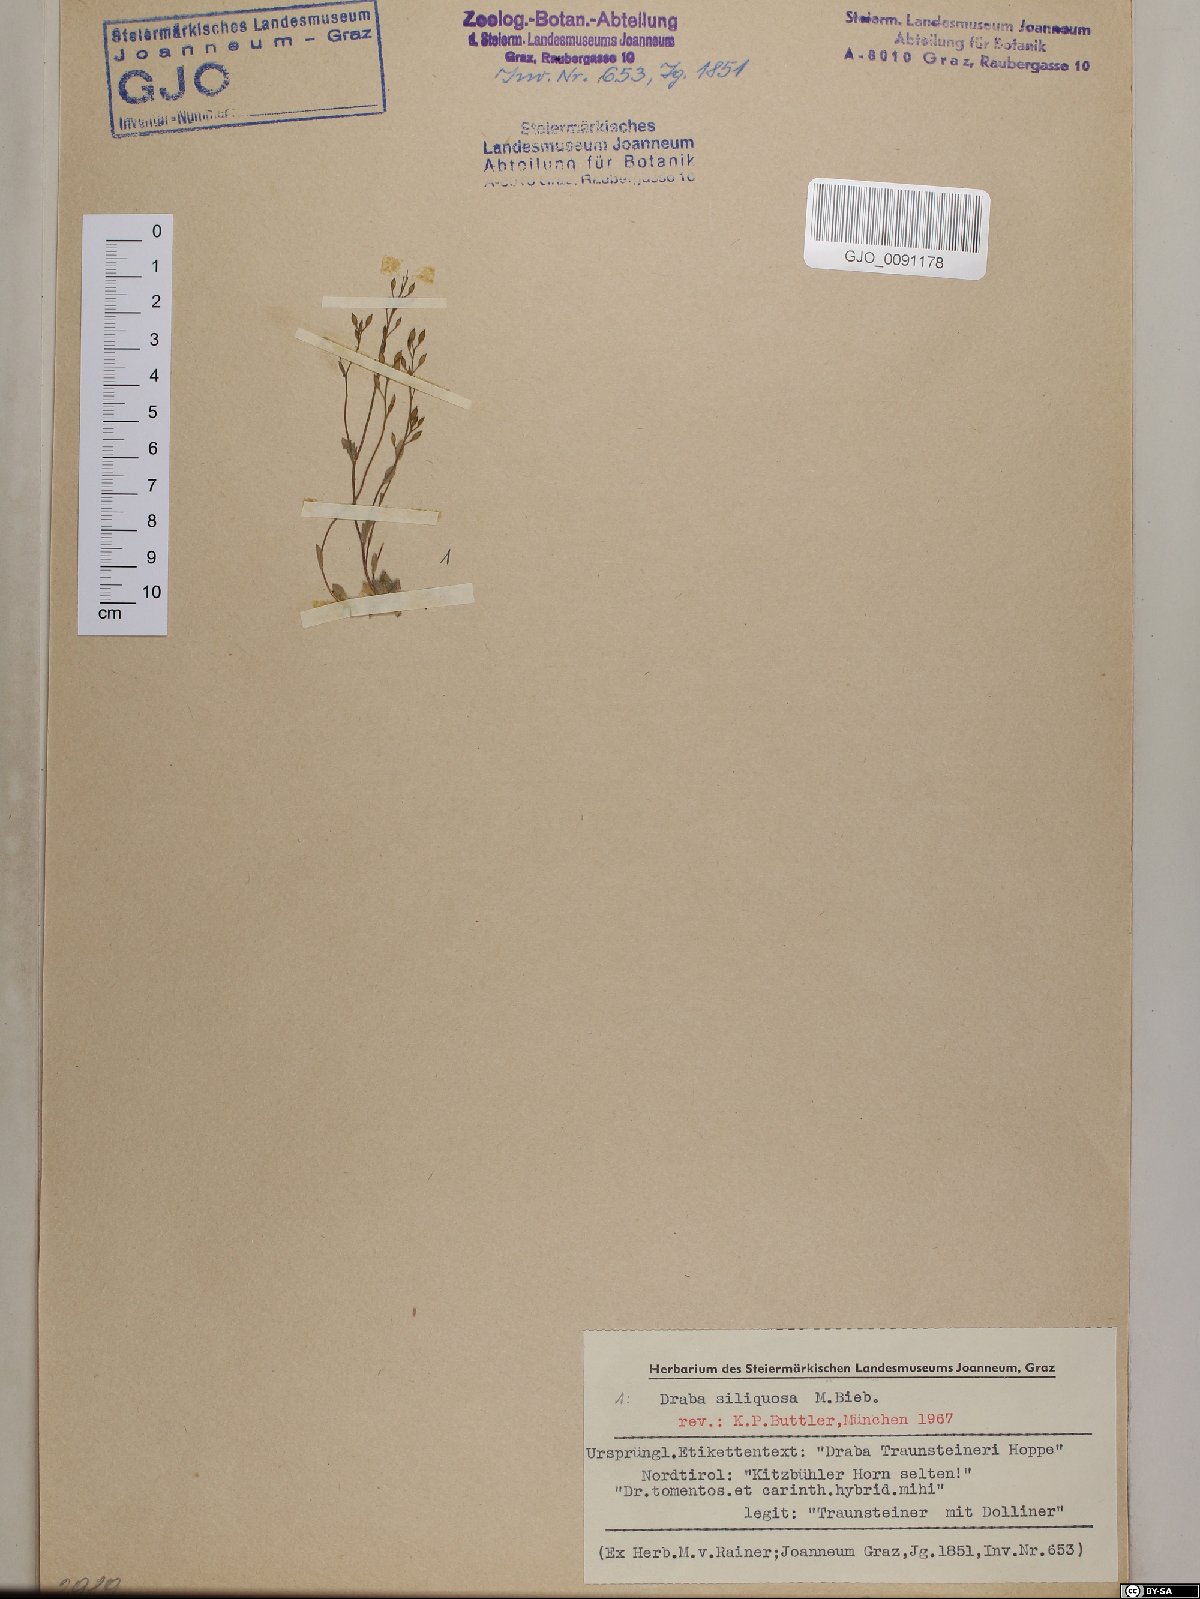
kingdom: Plantae
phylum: Tracheophyta
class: Magnoliopsida
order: Brassicales
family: Brassicaceae
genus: Draba
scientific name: Draba siliquosa
